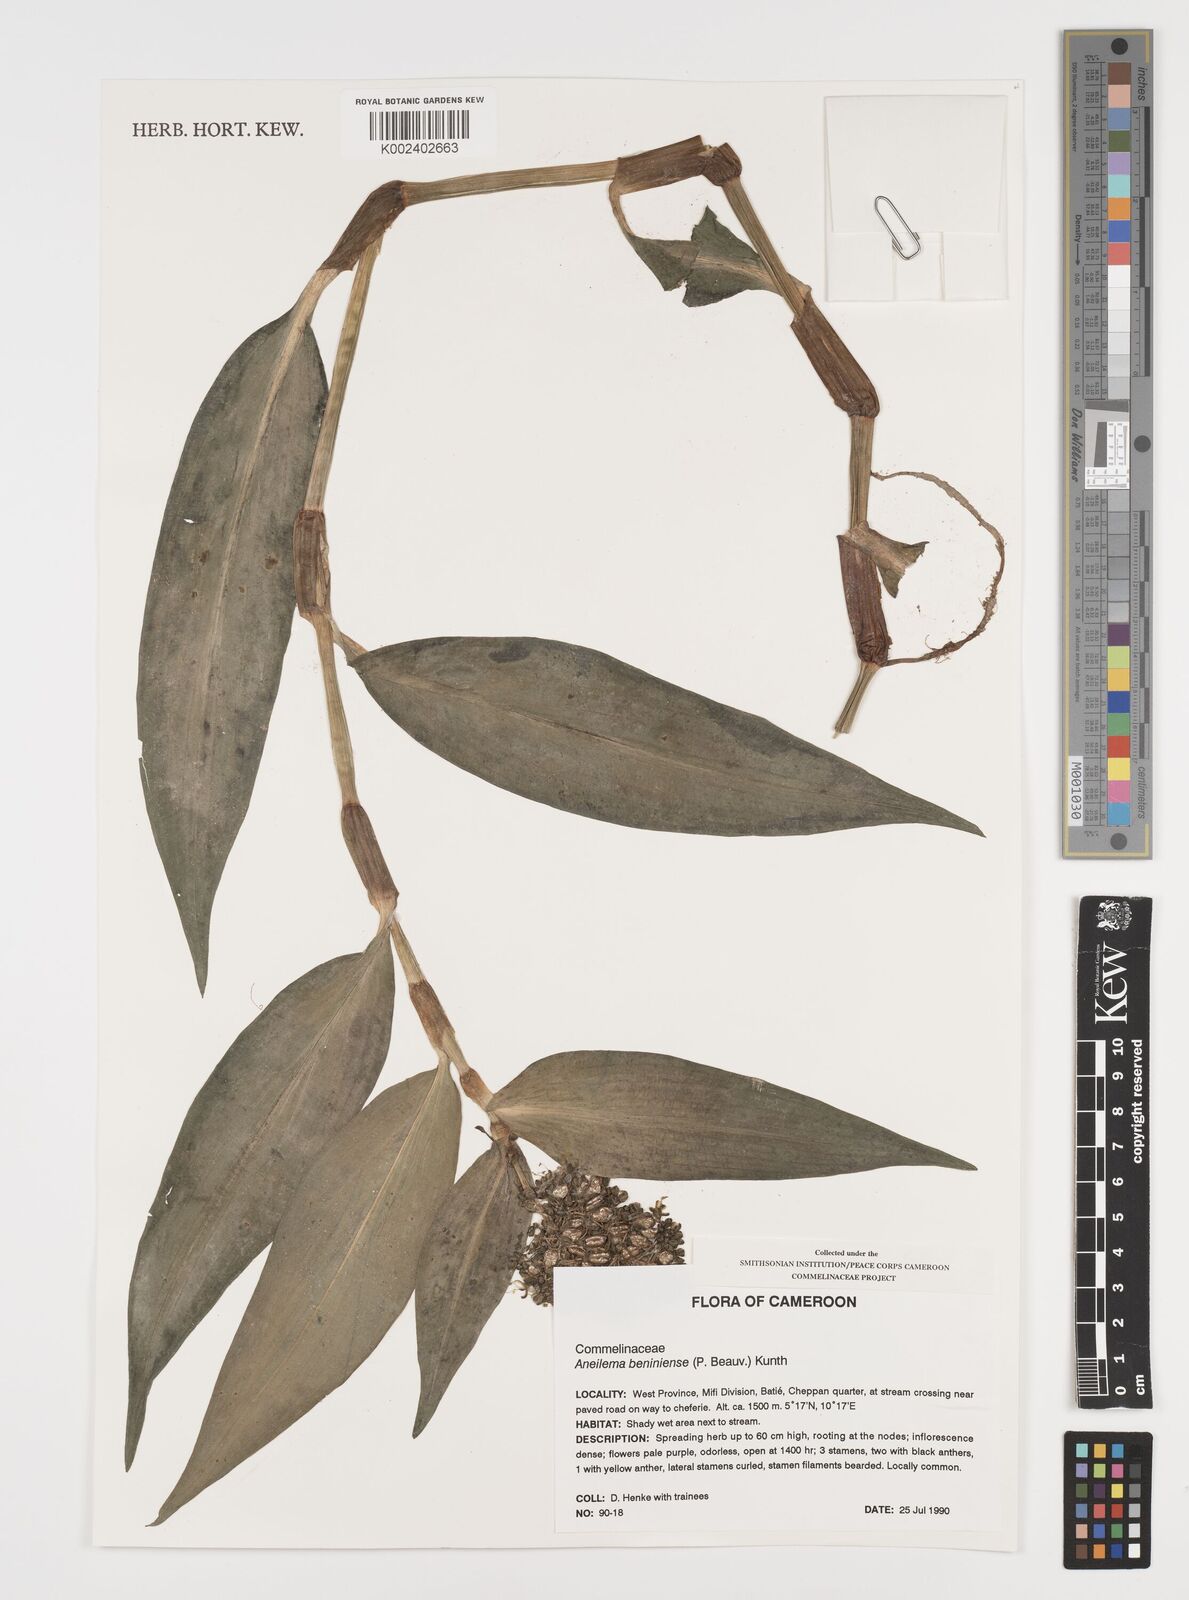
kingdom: Plantae
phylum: Tracheophyta
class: Liliopsida
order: Commelinales
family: Commelinaceae
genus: Aneilema
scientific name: Aneilema beniniense
